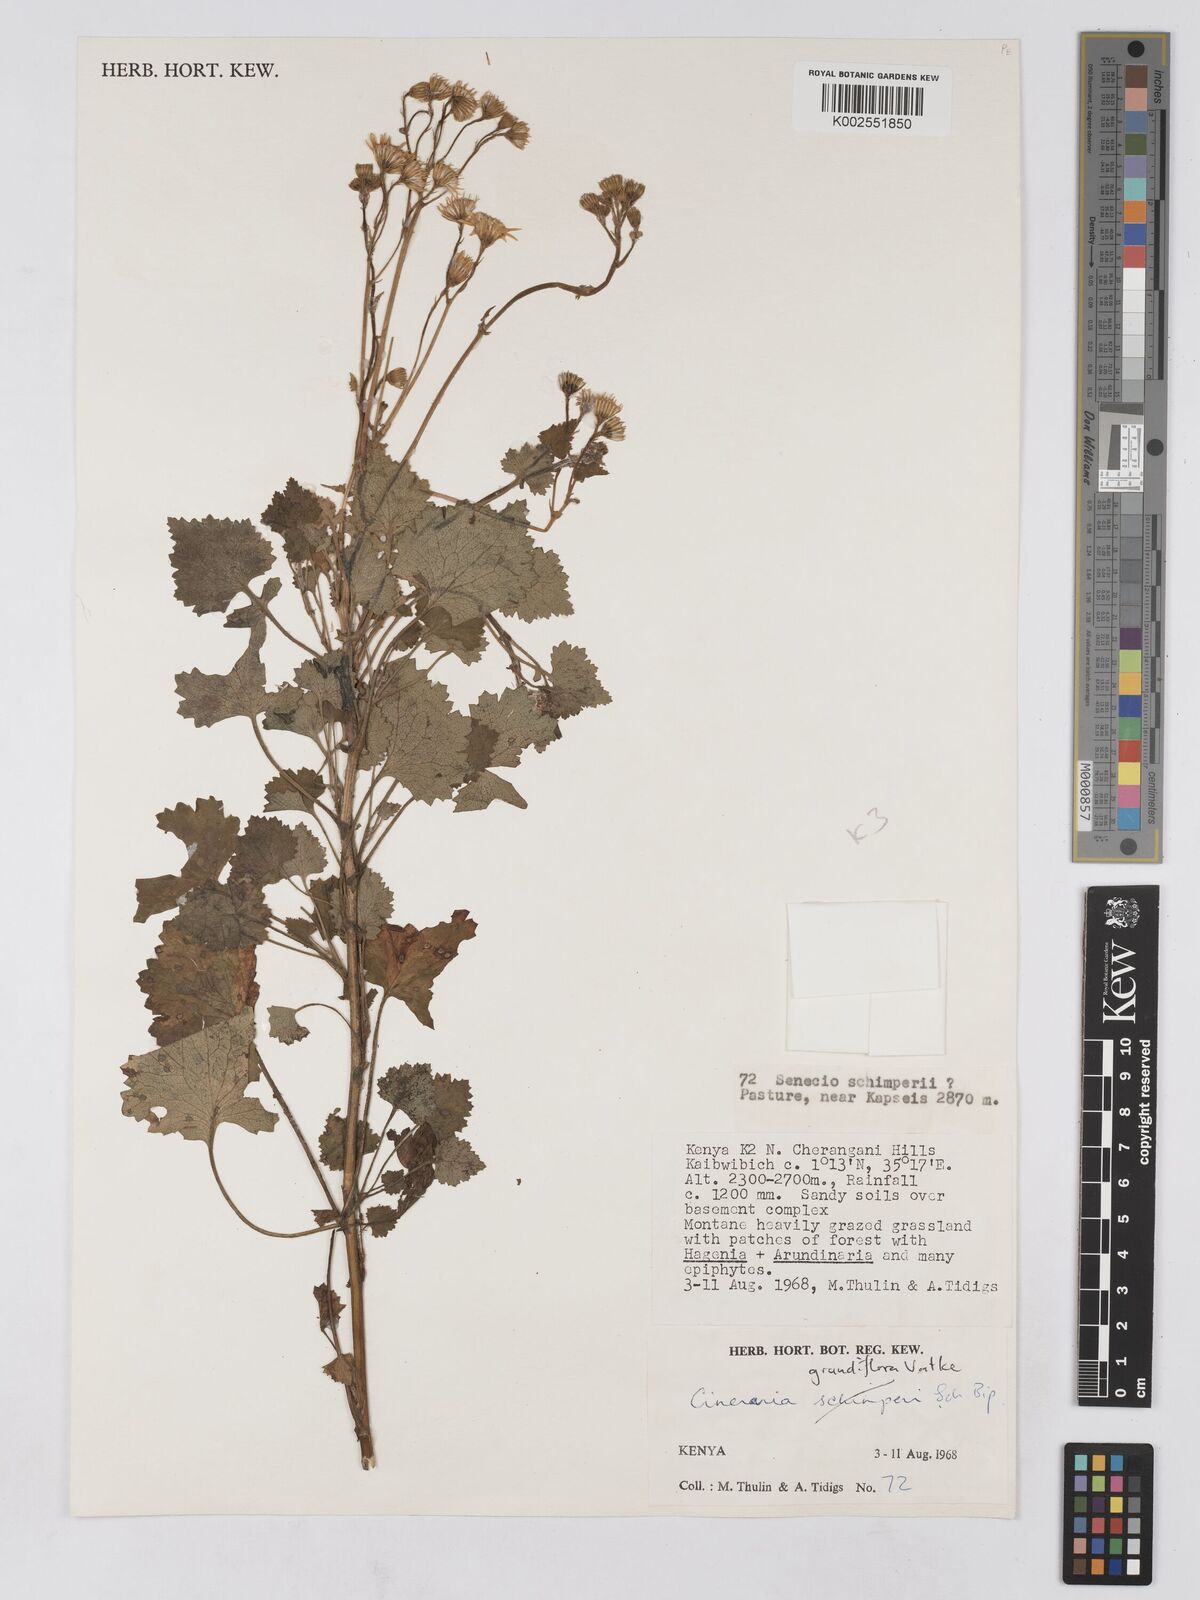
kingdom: Plantae
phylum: Tracheophyta
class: Magnoliopsida
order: Asterales
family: Asteraceae
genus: Cineraria
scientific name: Cineraria deltoidea
